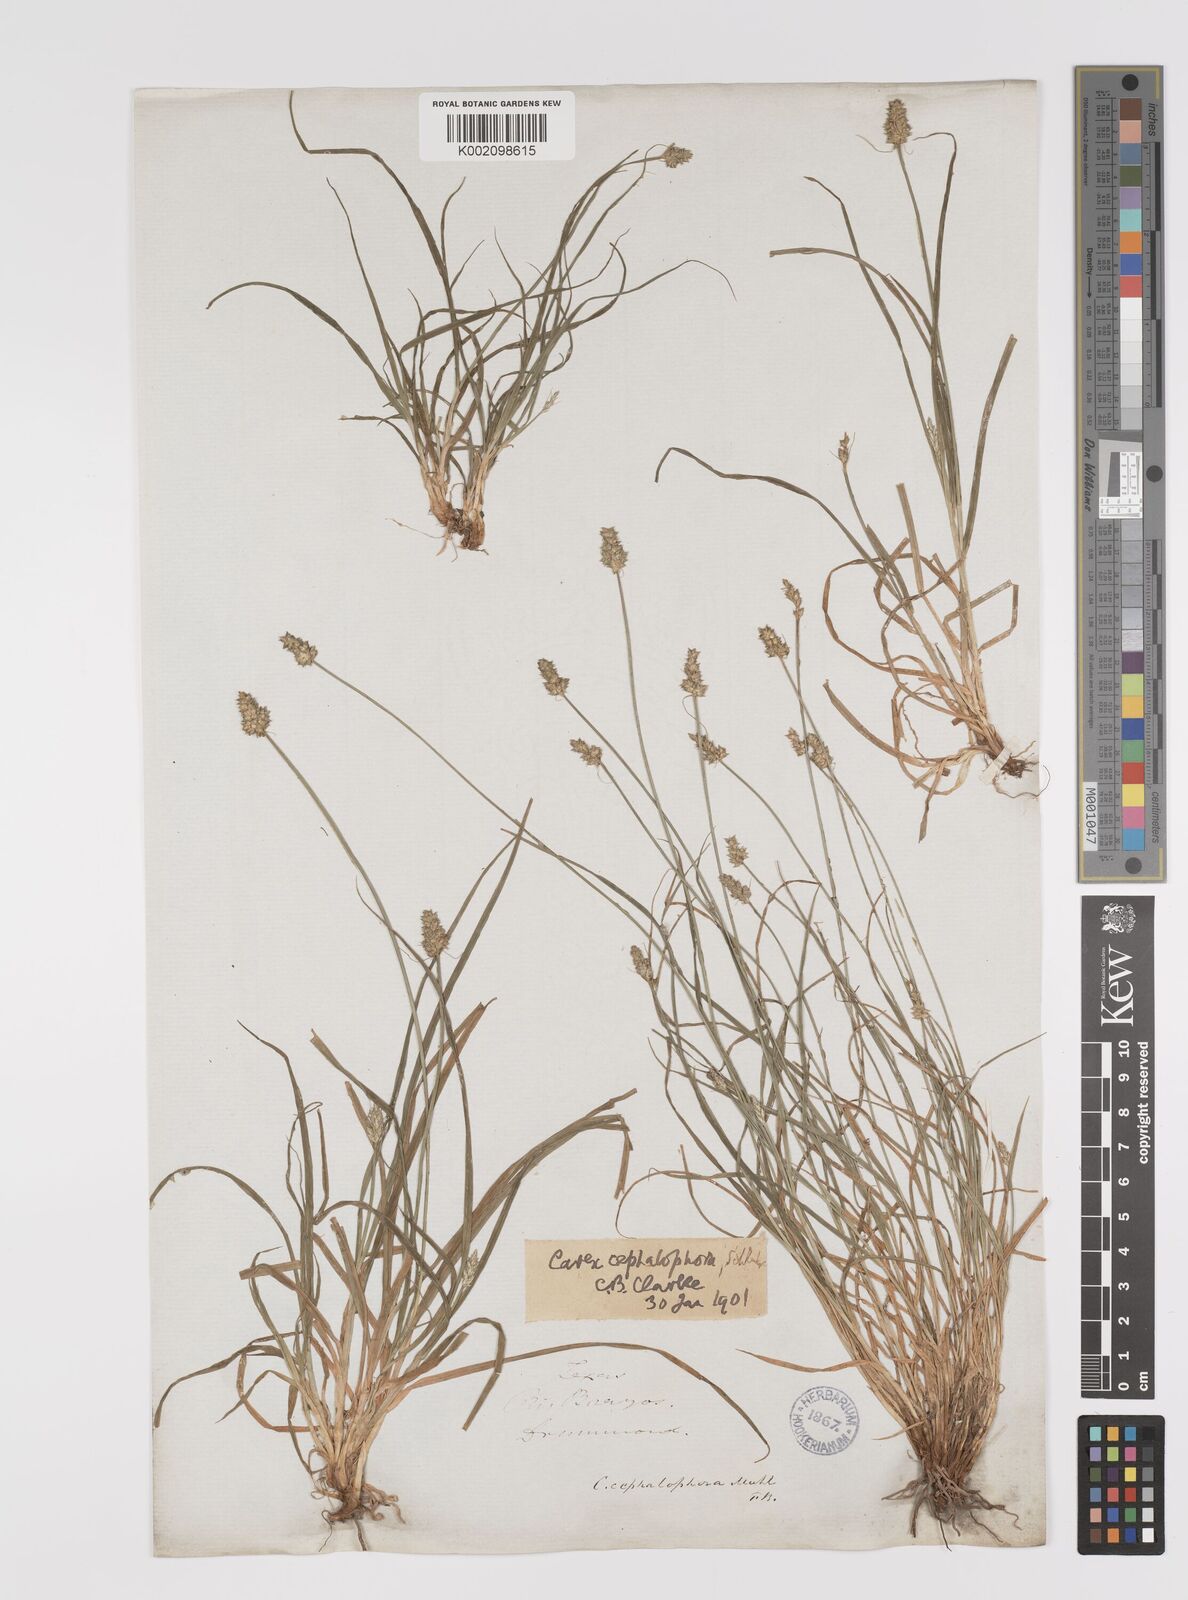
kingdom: Plantae
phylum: Tracheophyta
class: Liliopsida
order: Poales
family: Cyperaceae
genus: Carex
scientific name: Carex cephalophora
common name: Oval-headed sedge
